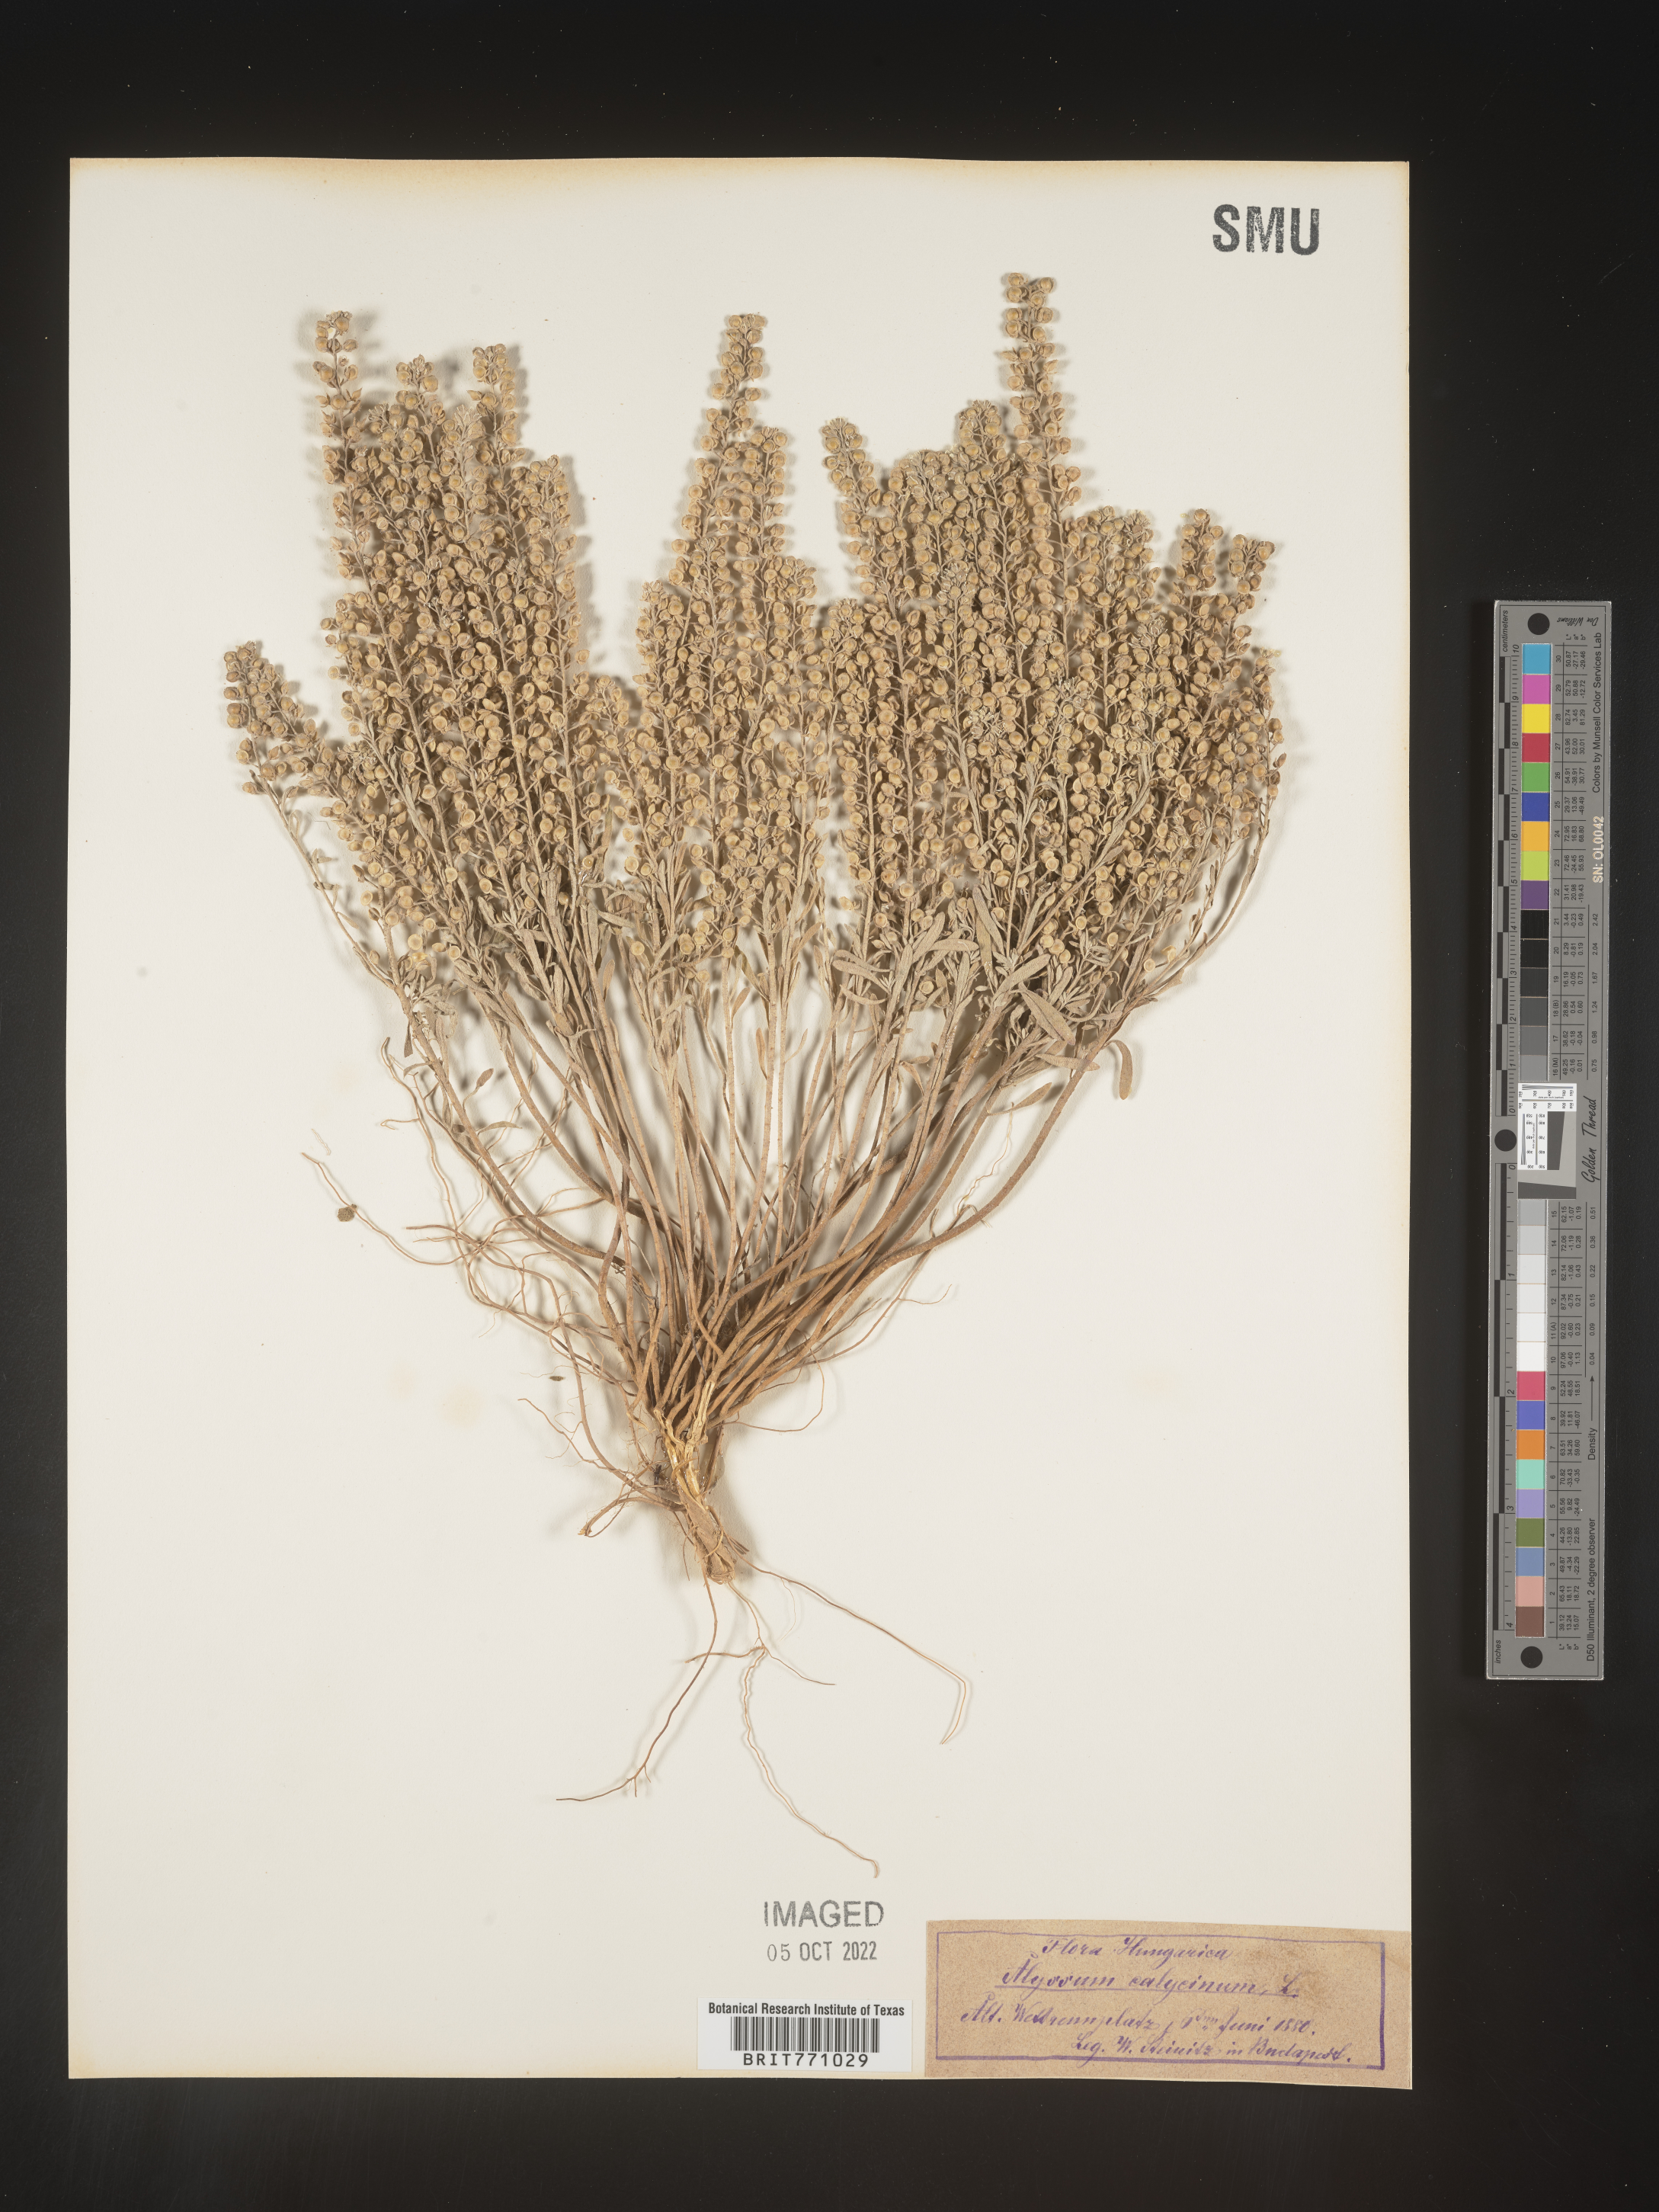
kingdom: Plantae
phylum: Tracheophyta
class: Magnoliopsida
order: Brassicales
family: Brassicaceae
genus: Alyssum
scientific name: Alyssum
